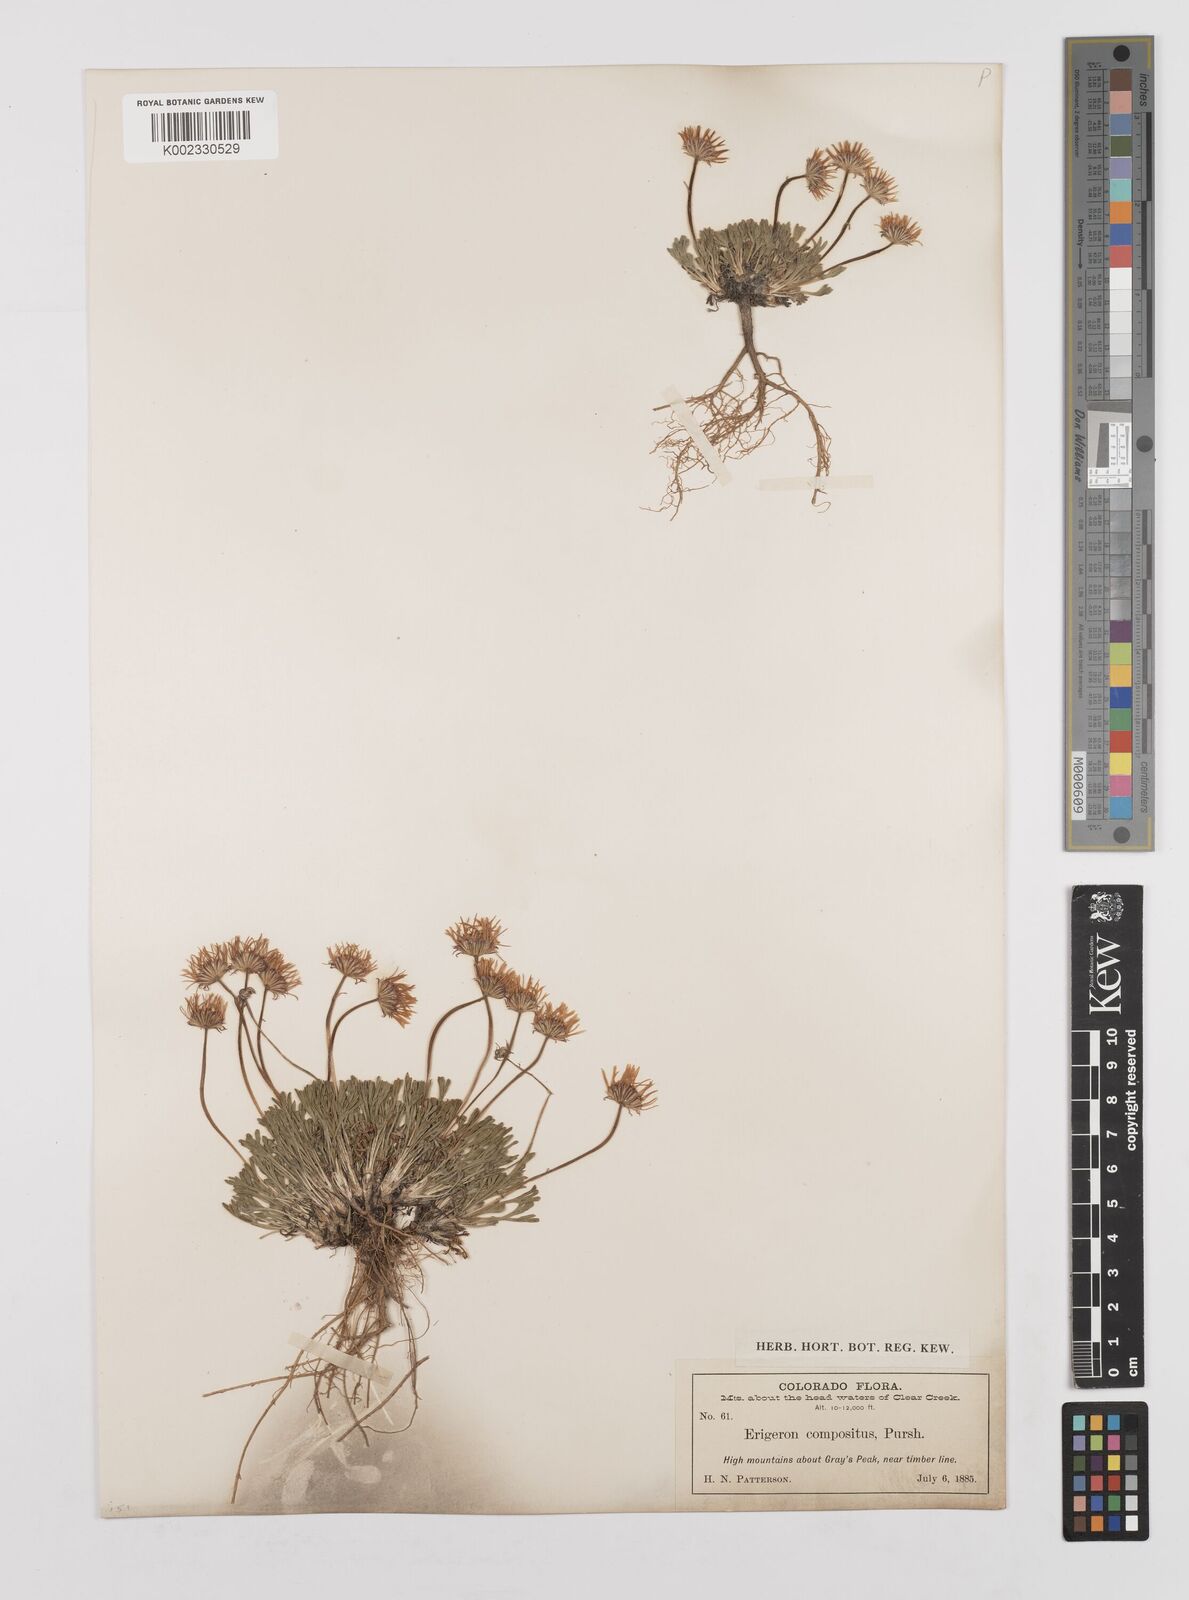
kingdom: Plantae
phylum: Tracheophyta
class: Magnoliopsida
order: Asterales
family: Asteraceae
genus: Erigeron
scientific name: Erigeron compositus
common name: Dwarf mountain fleabane
